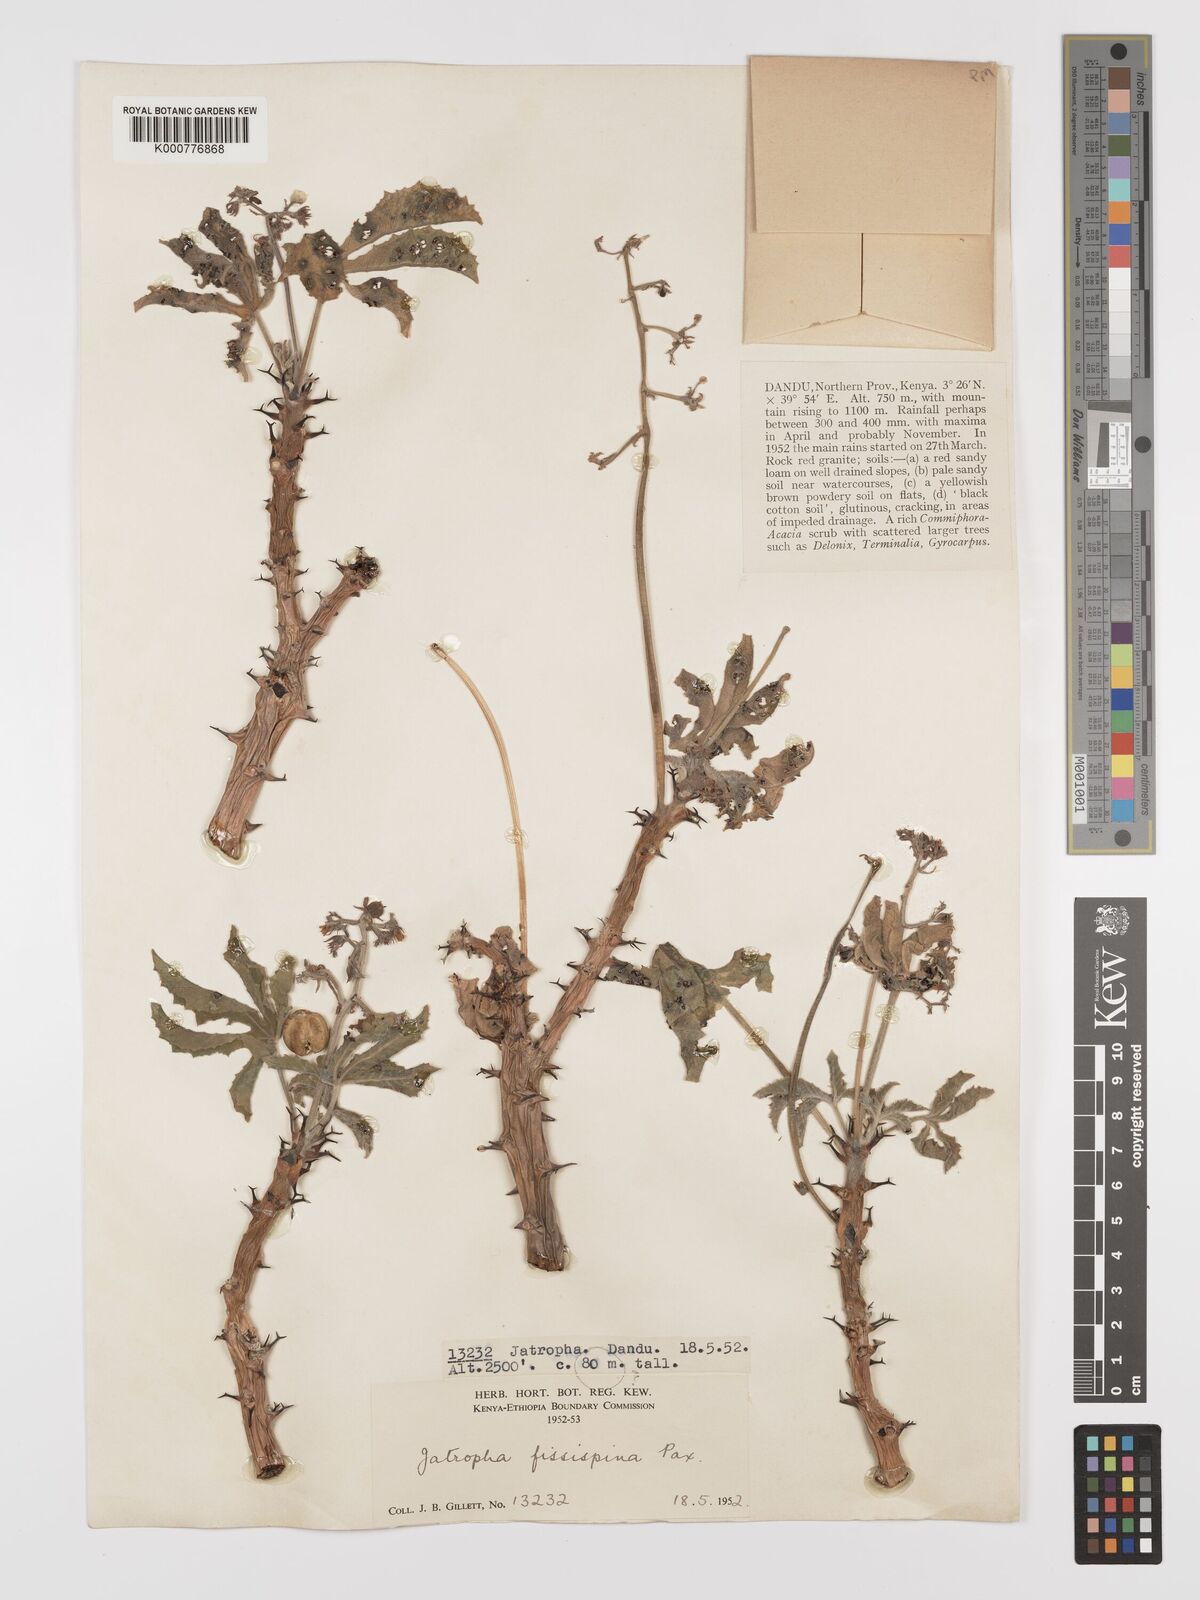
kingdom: Plantae
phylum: Tracheophyta
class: Magnoliopsida
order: Malpighiales
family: Euphorbiaceae
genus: Jatropha
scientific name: Jatropha ellenbeckii
